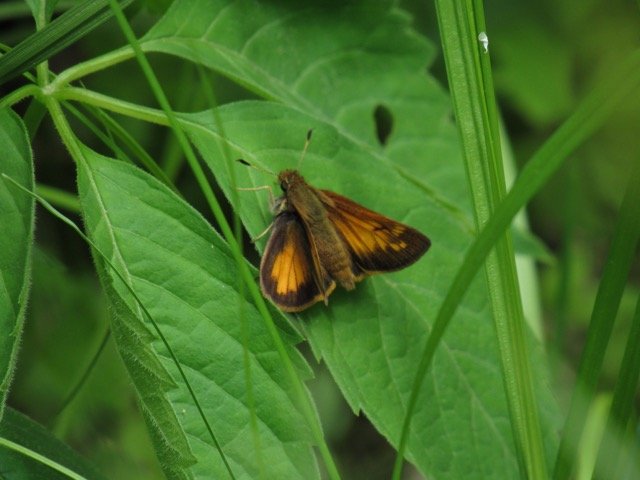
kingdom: Animalia
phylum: Arthropoda
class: Insecta
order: Lepidoptera
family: Hesperiidae
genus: Lon
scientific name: Lon hobomok
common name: Hobomok Skipper
